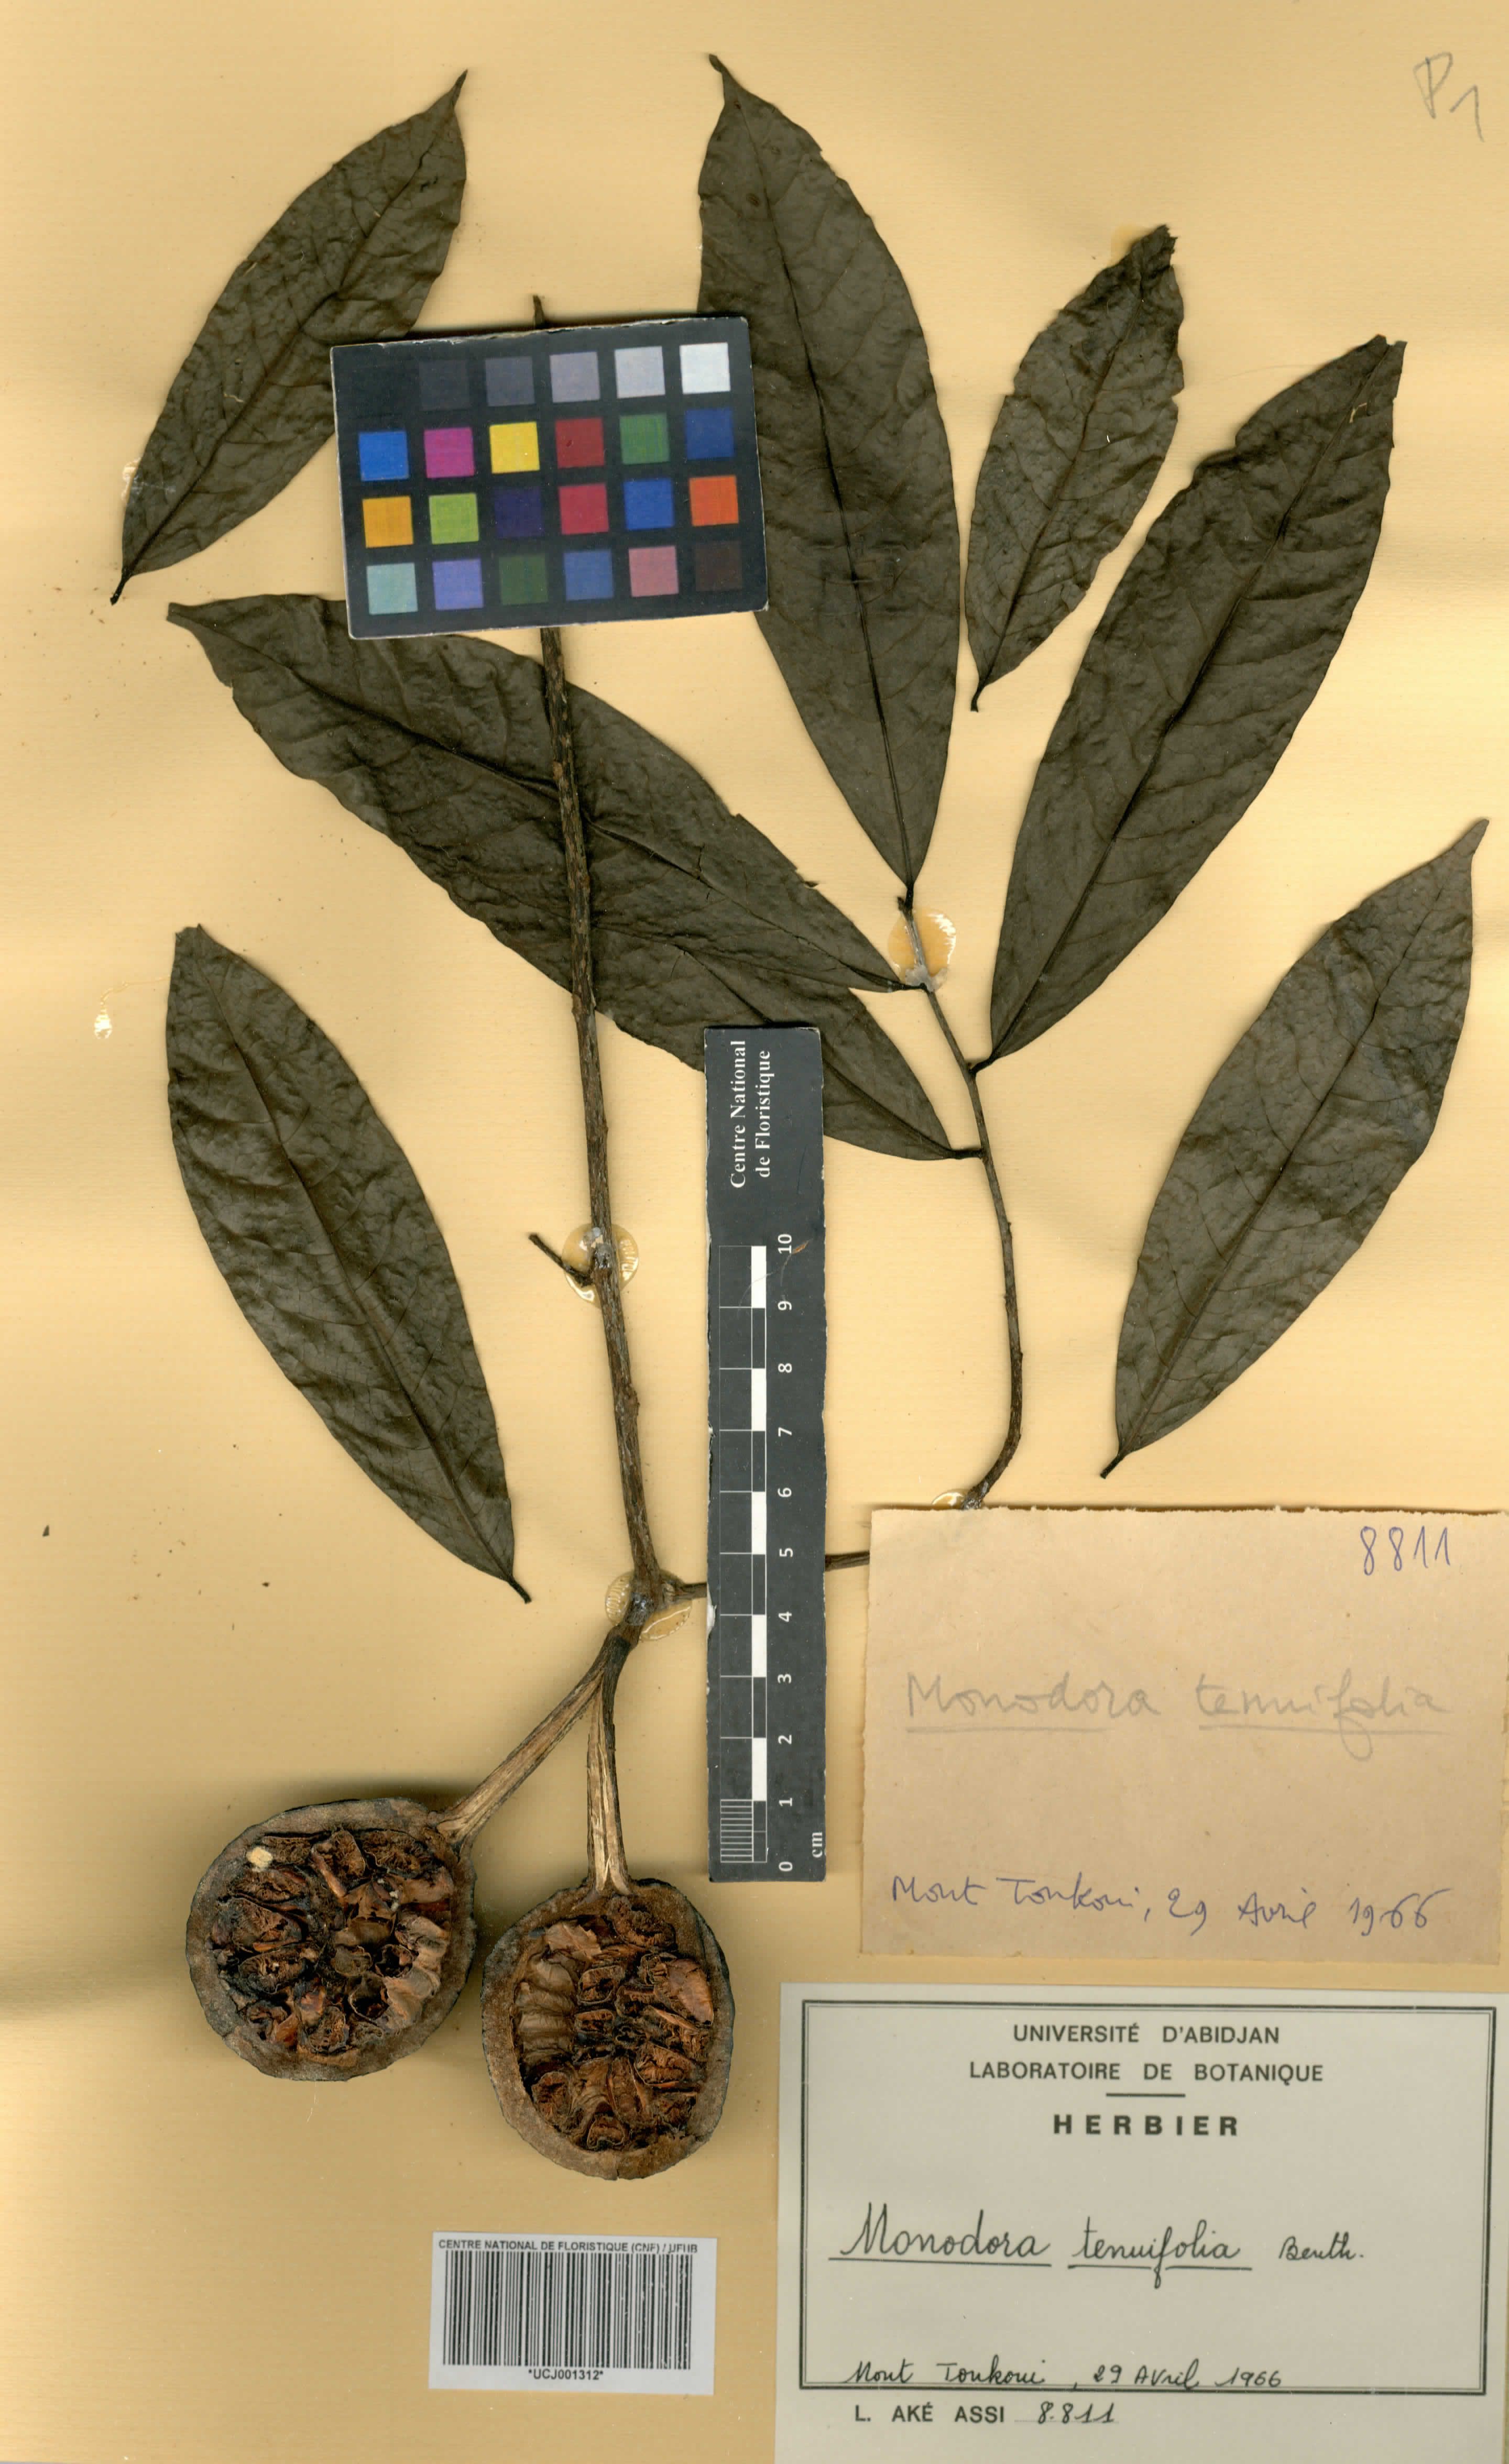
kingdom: Plantae
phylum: Tracheophyta
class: Magnoliopsida
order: Magnoliales
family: Annonaceae
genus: Monodora
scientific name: Monodora tenuifolia
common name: Orchidtree
